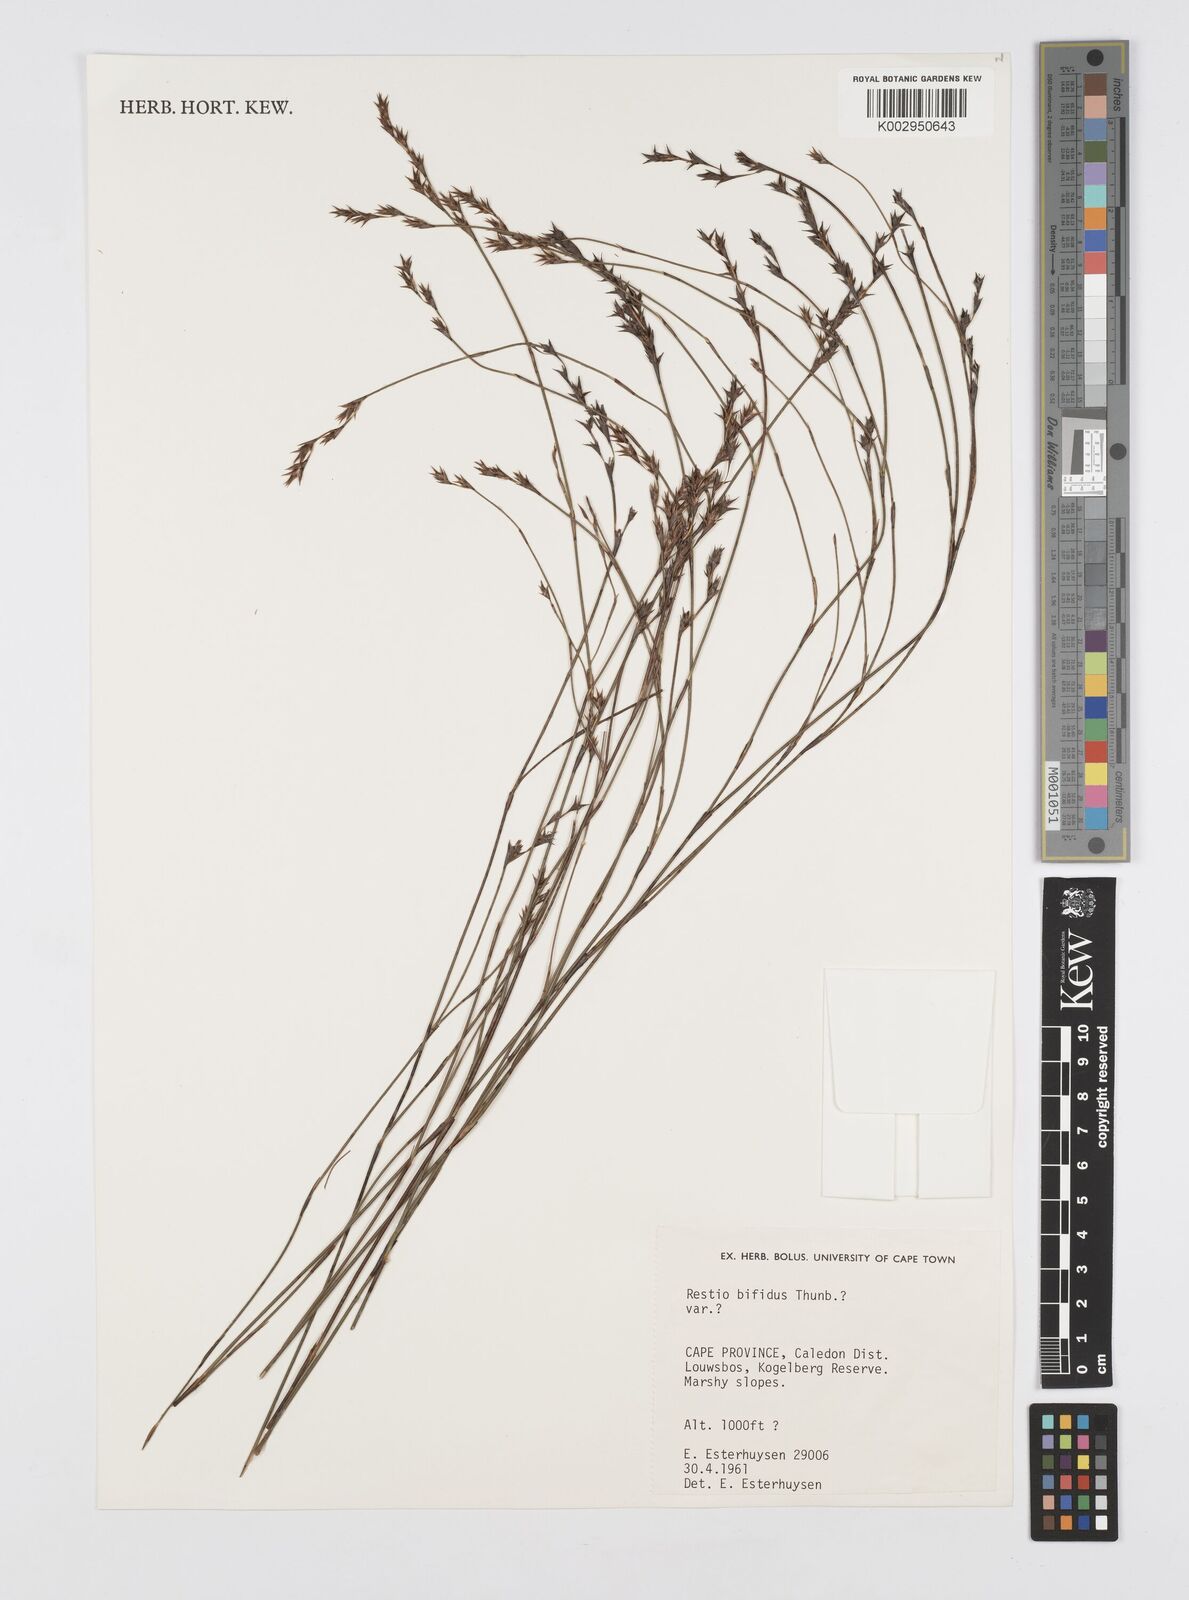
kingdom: Plantae
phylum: Tracheophyta
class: Liliopsida
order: Poales
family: Restionaceae
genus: Restio
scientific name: Restio bifidus
